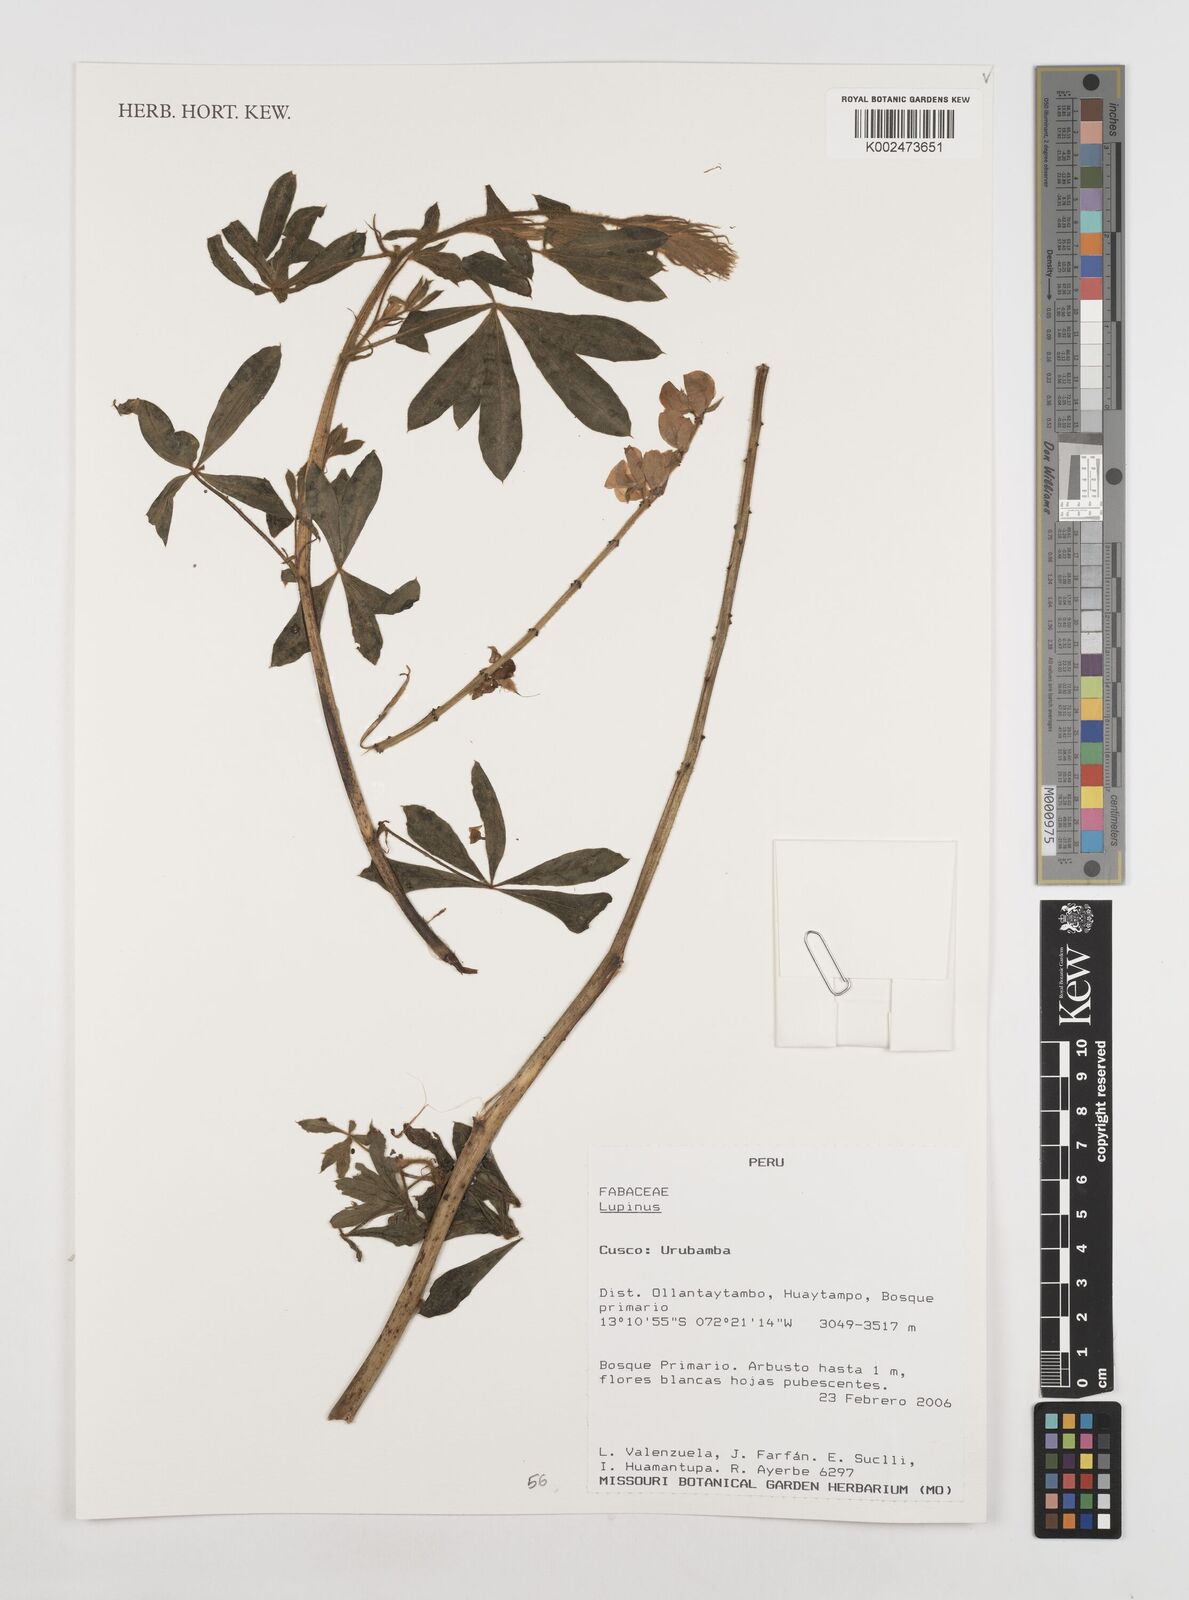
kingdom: Plantae
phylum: Tracheophyta
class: Magnoliopsida
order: Fabales
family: Fabaceae
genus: Lupinus
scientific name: Lupinus
